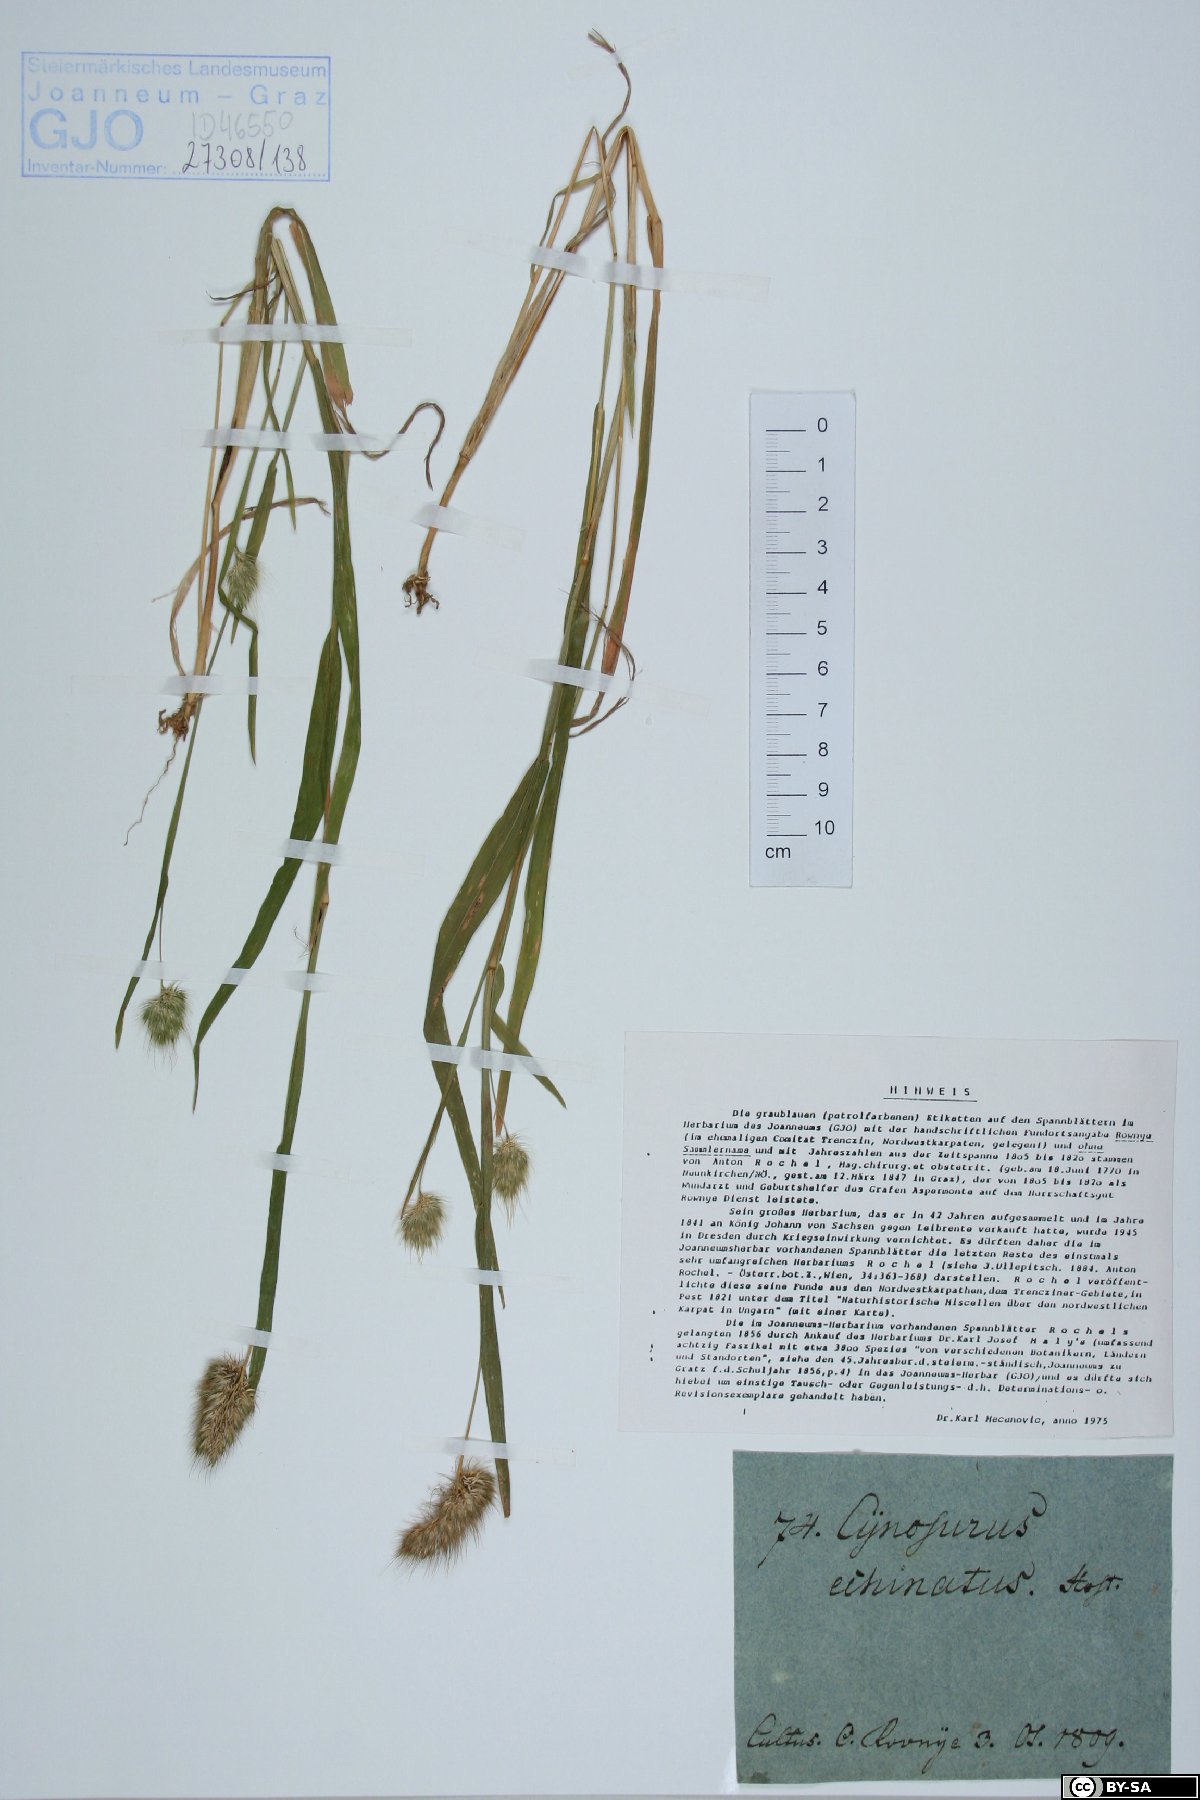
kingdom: Plantae
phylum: Tracheophyta
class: Liliopsida
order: Poales
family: Poaceae
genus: Cynosurus
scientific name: Cynosurus echinatus
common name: Rough dog's-tail
